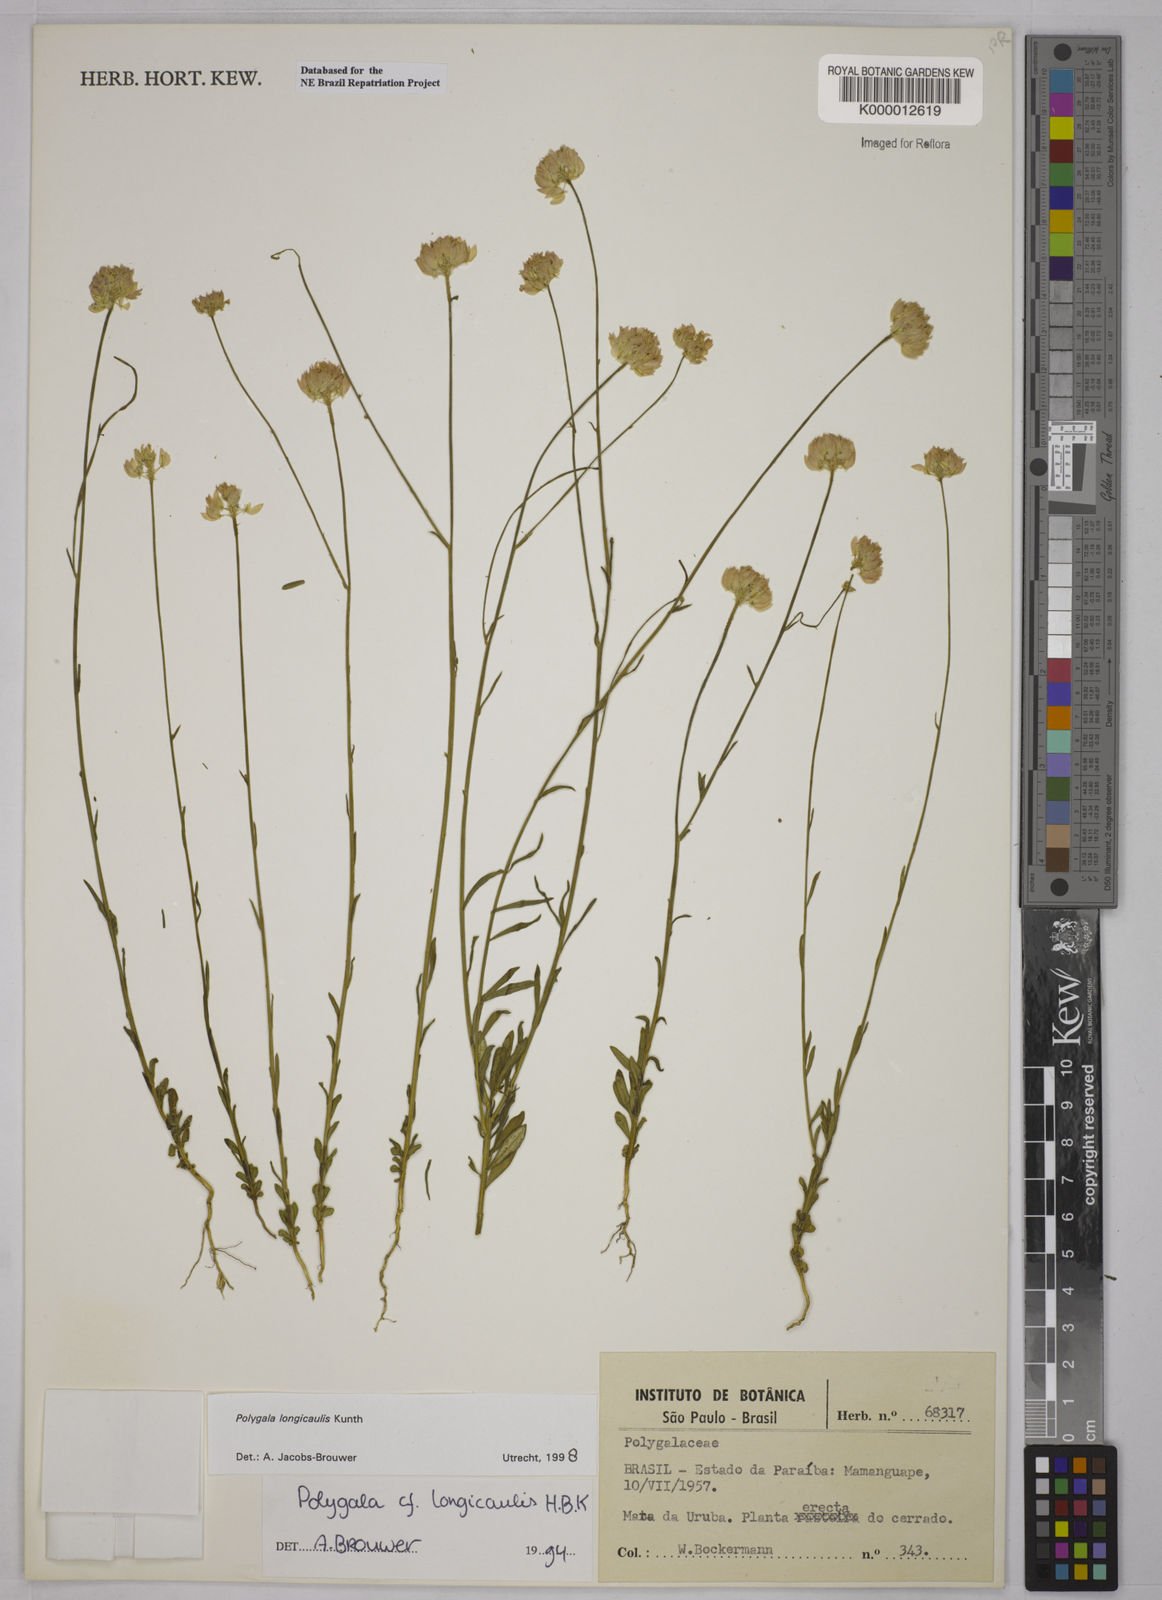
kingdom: Plantae
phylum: Tracheophyta
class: Magnoliopsida
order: Fabales
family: Polygalaceae
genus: Polygala
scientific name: Polygala longicaulis
